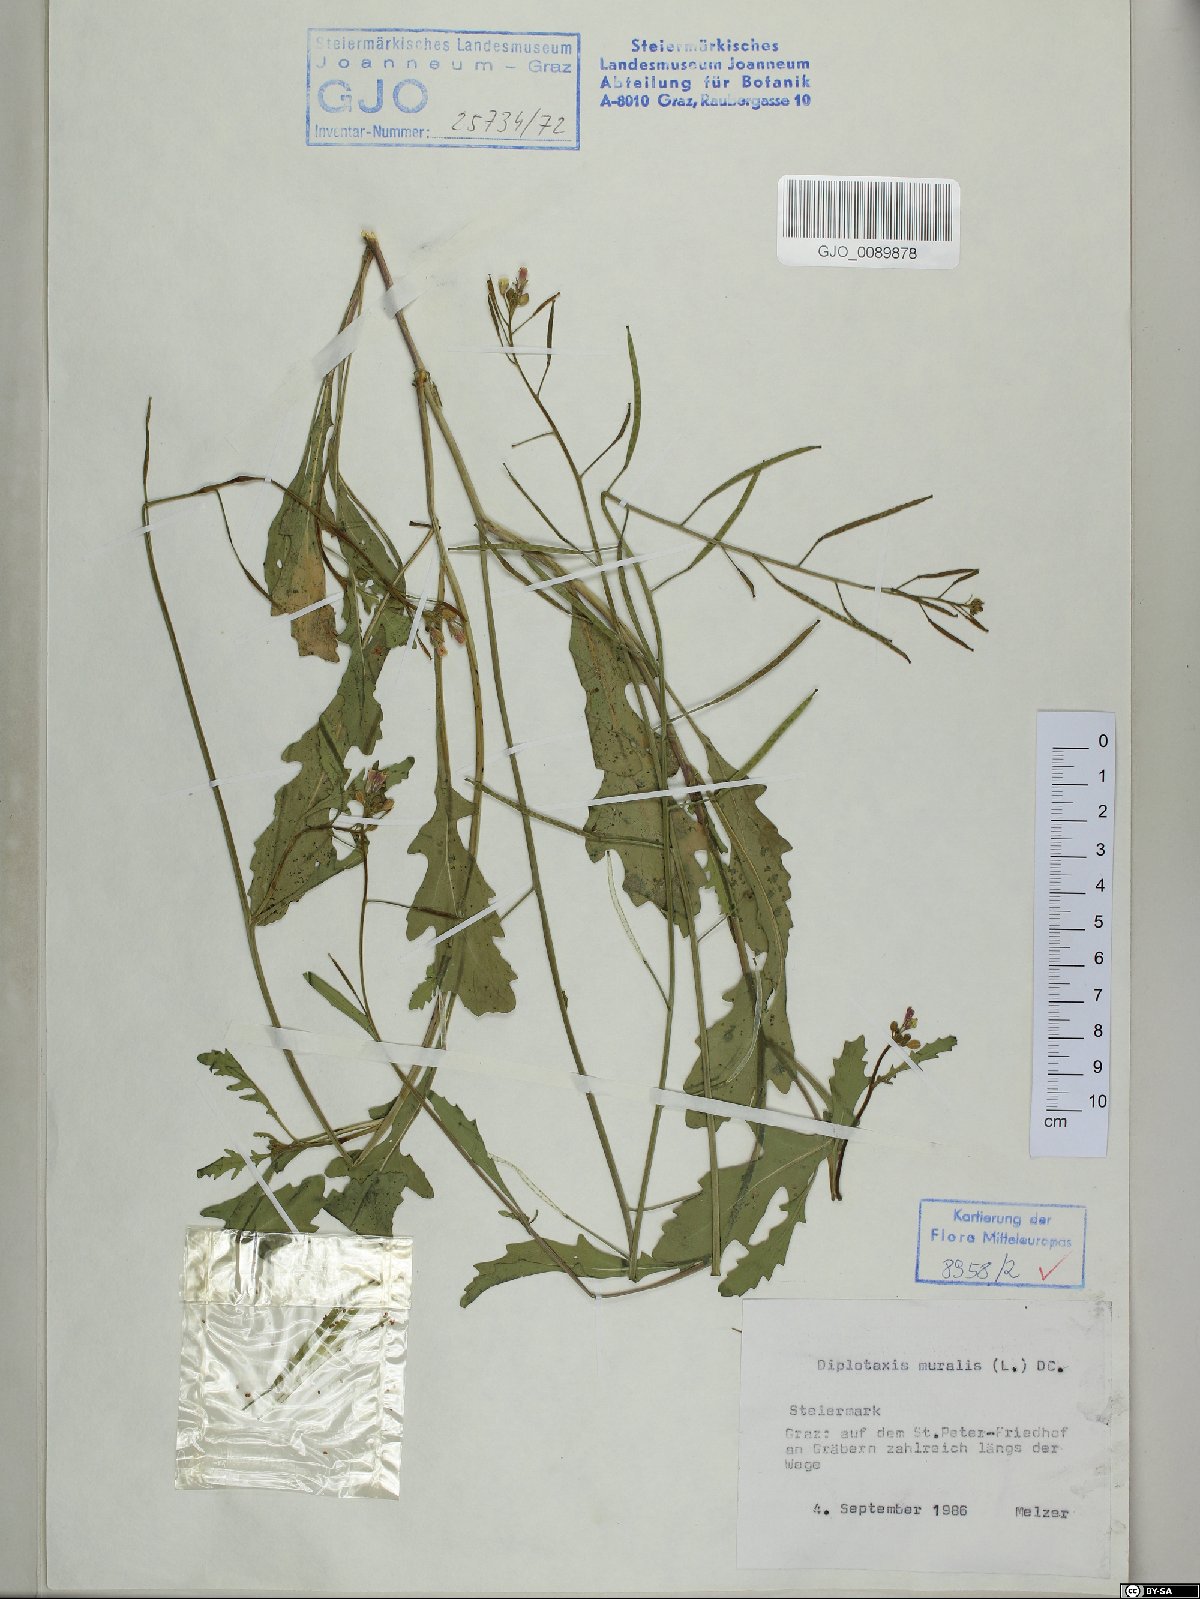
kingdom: Plantae
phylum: Tracheophyta
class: Magnoliopsida
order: Brassicales
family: Brassicaceae
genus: Diplotaxis
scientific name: Diplotaxis muralis
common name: Annual wall-rocket
